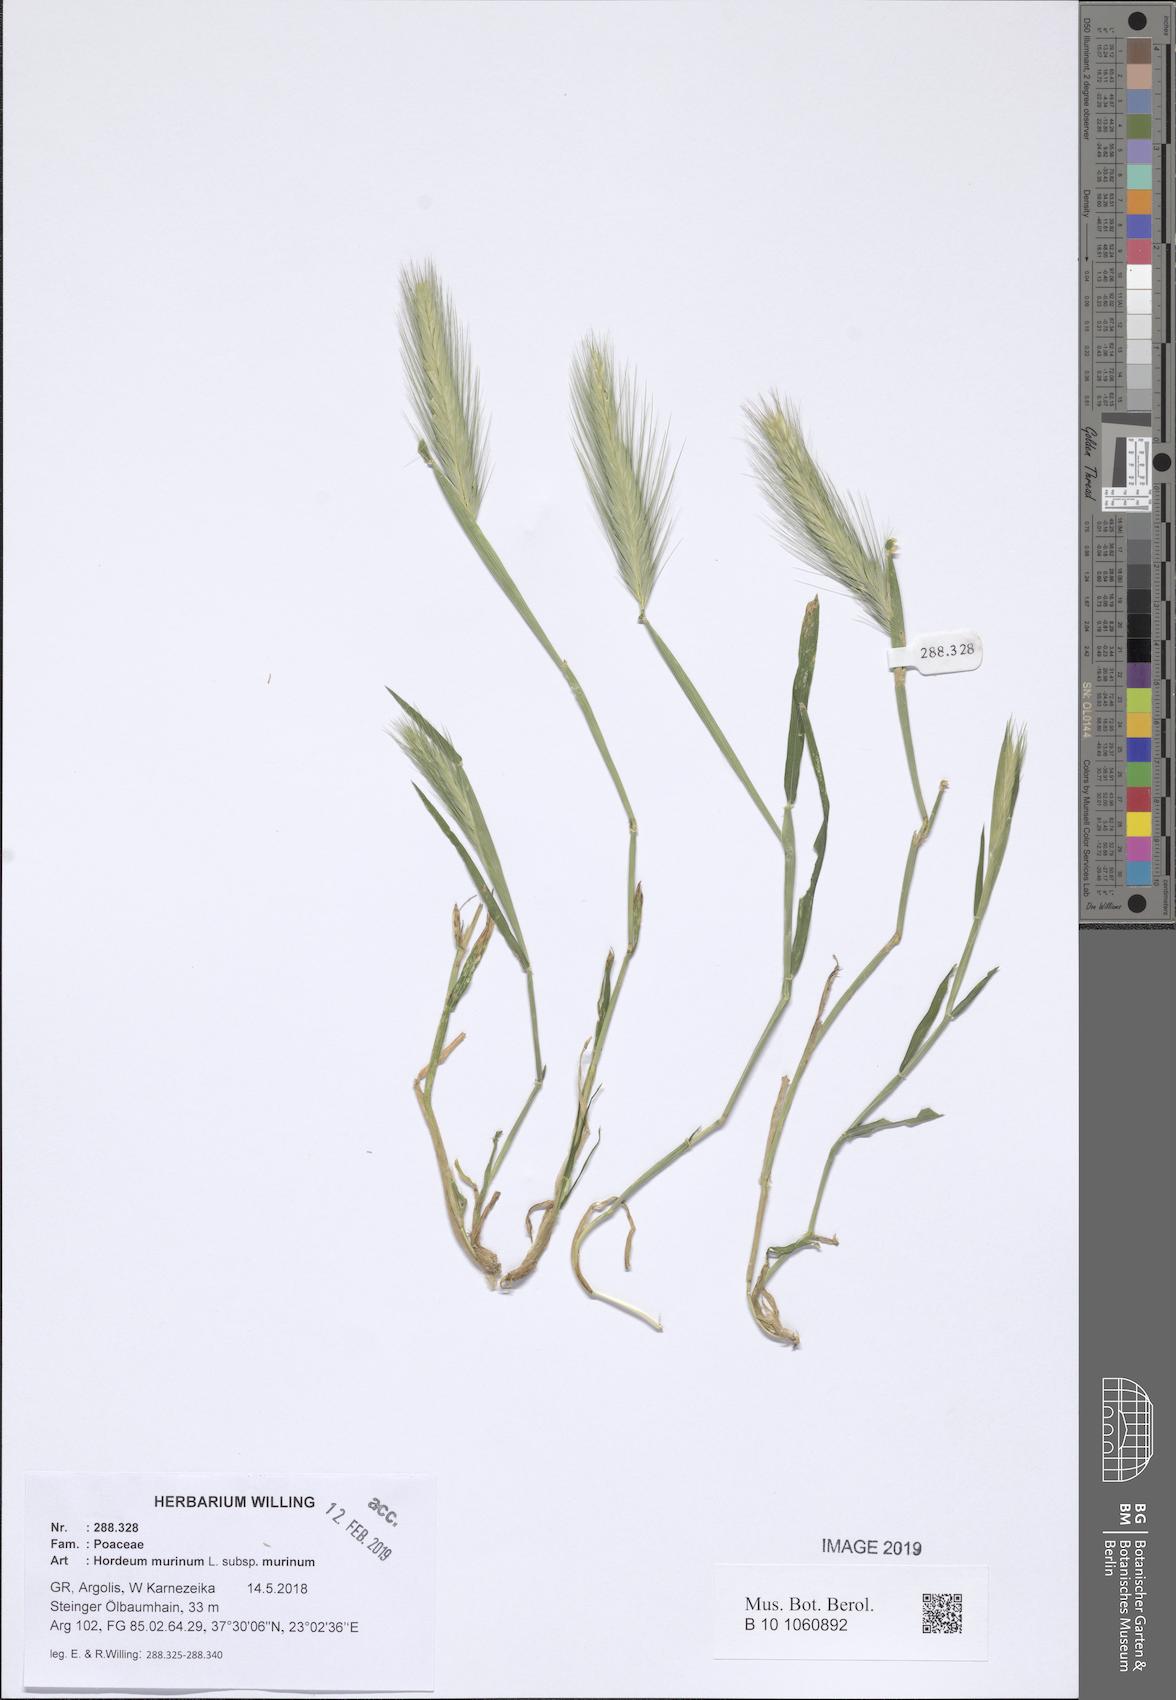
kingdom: Plantae
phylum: Tracheophyta
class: Liliopsida
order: Poales
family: Poaceae
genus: Hordeum
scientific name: Hordeum murinum
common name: Wall barley
